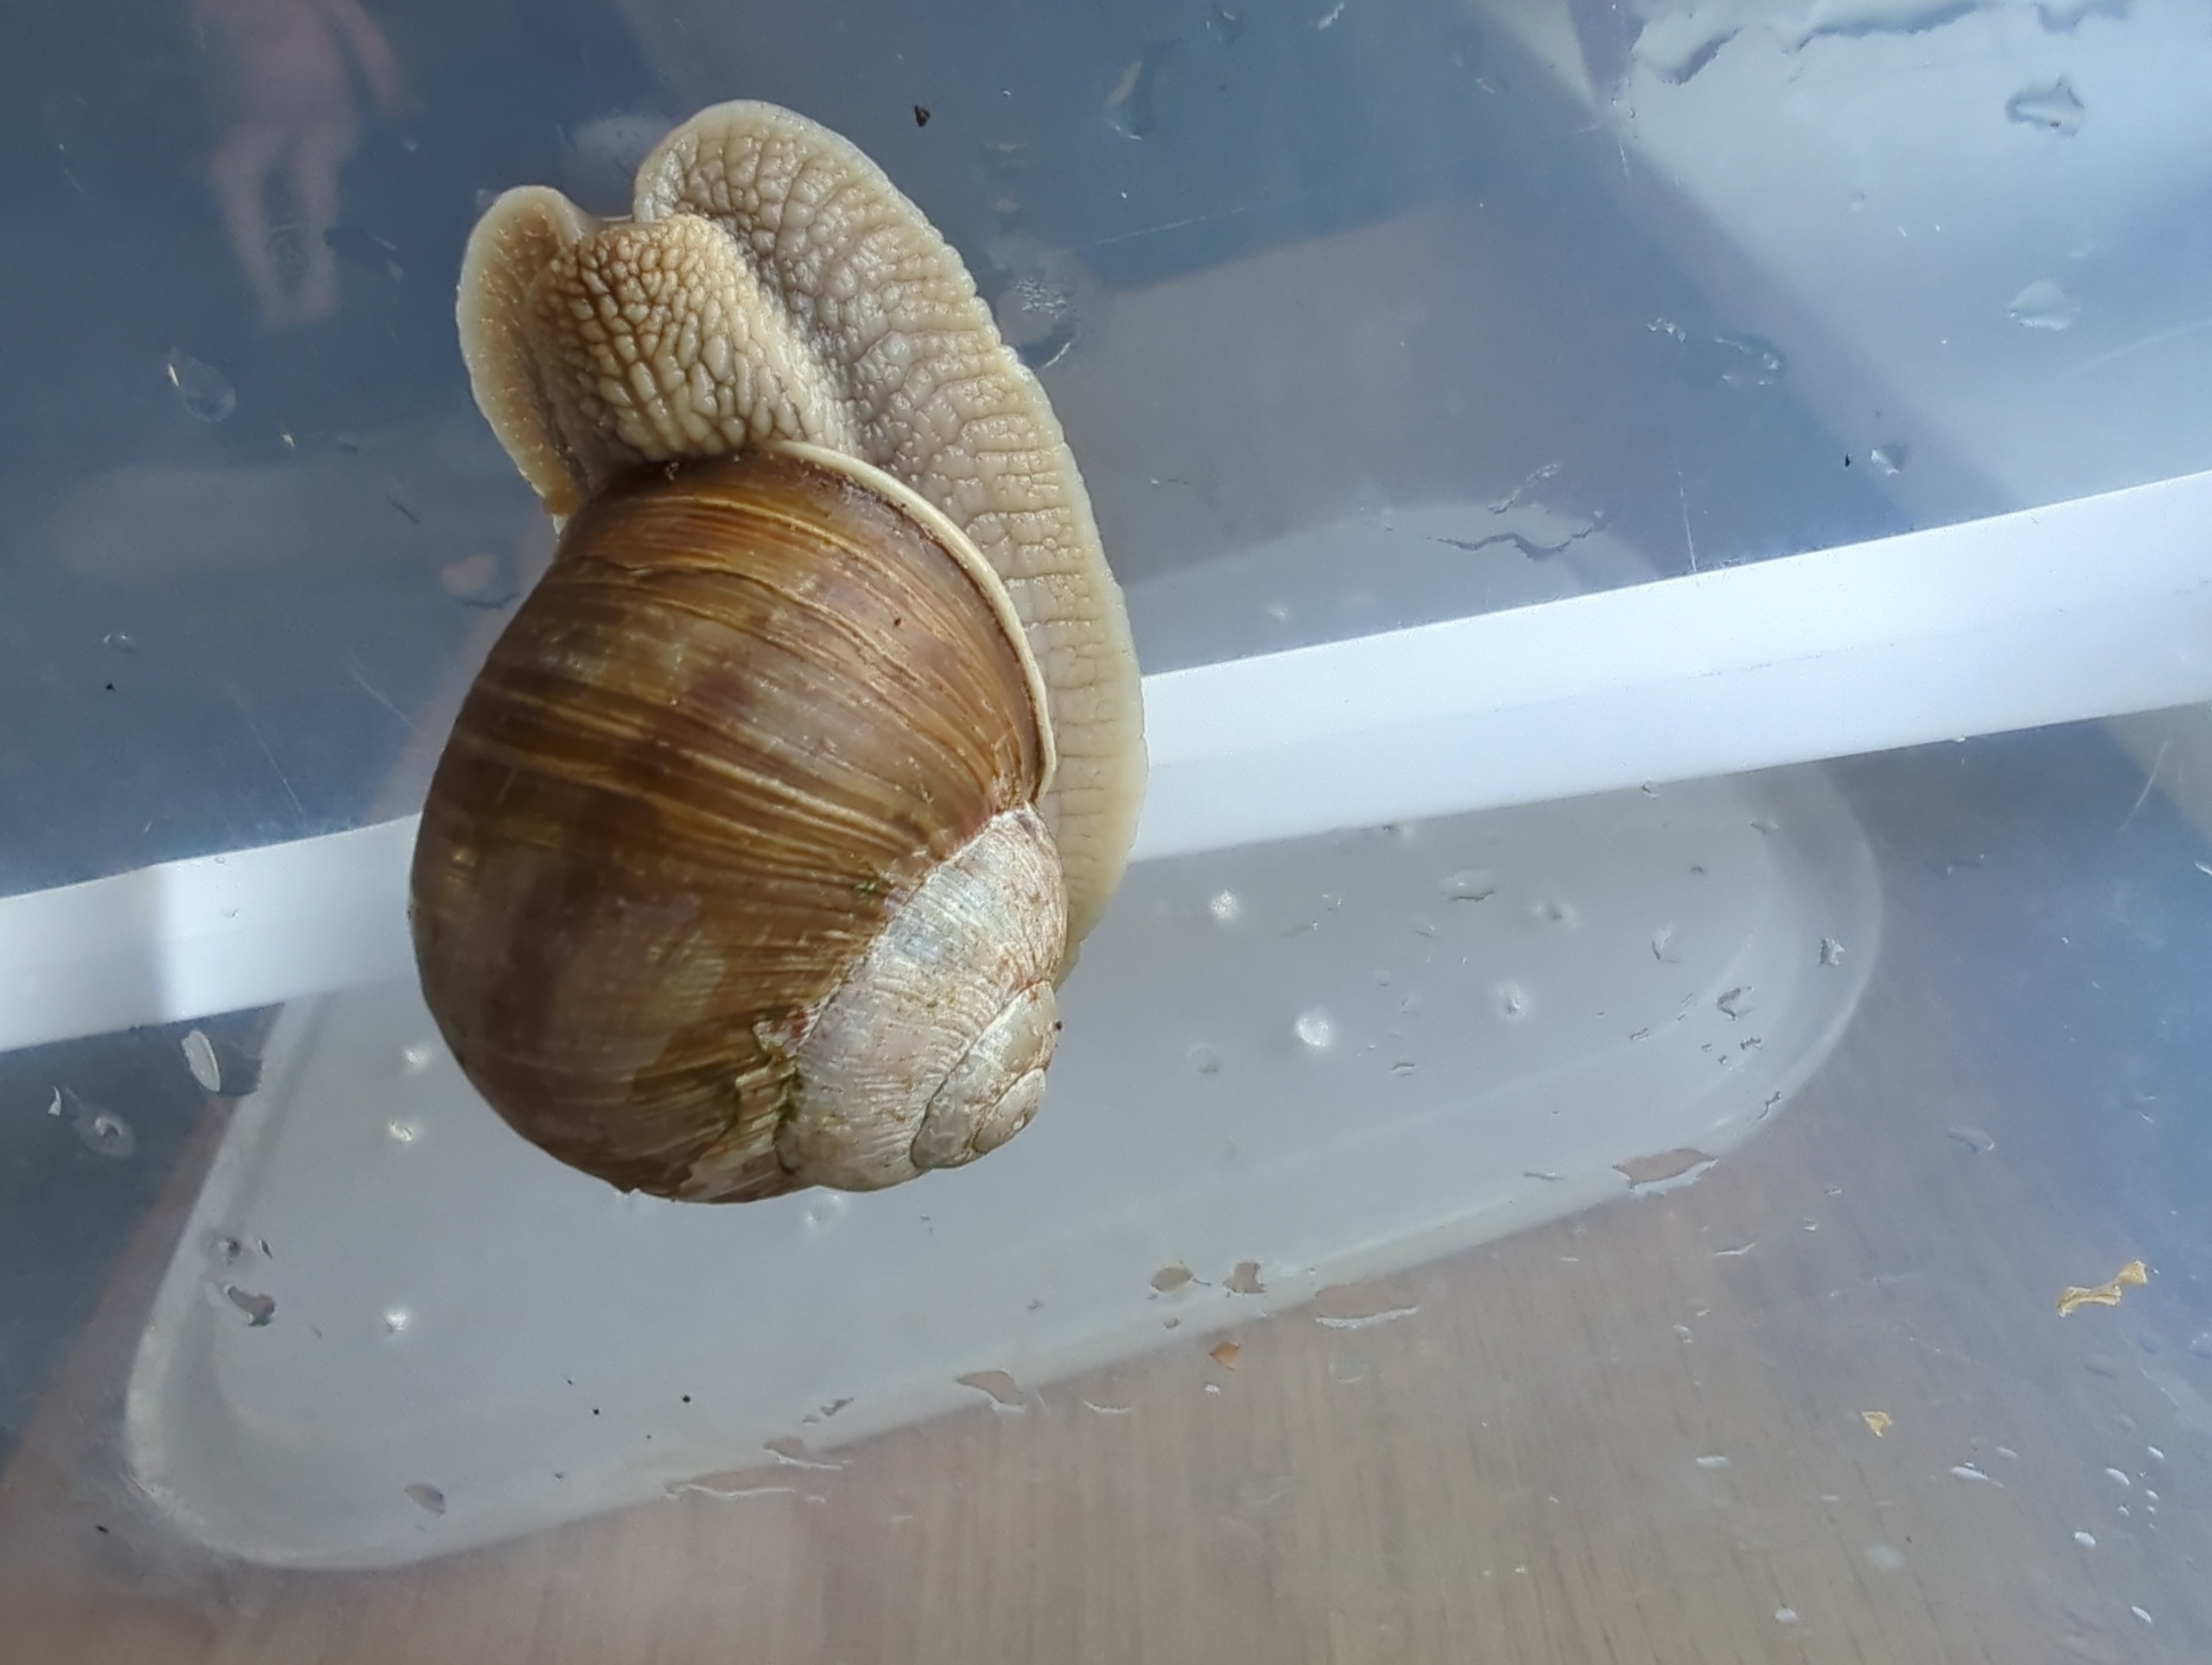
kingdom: Animalia
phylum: Mollusca
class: Gastropoda
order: Stylommatophora
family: Helicidae
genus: Helix
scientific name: Helix pomatia
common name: Vinbjergsnegl
